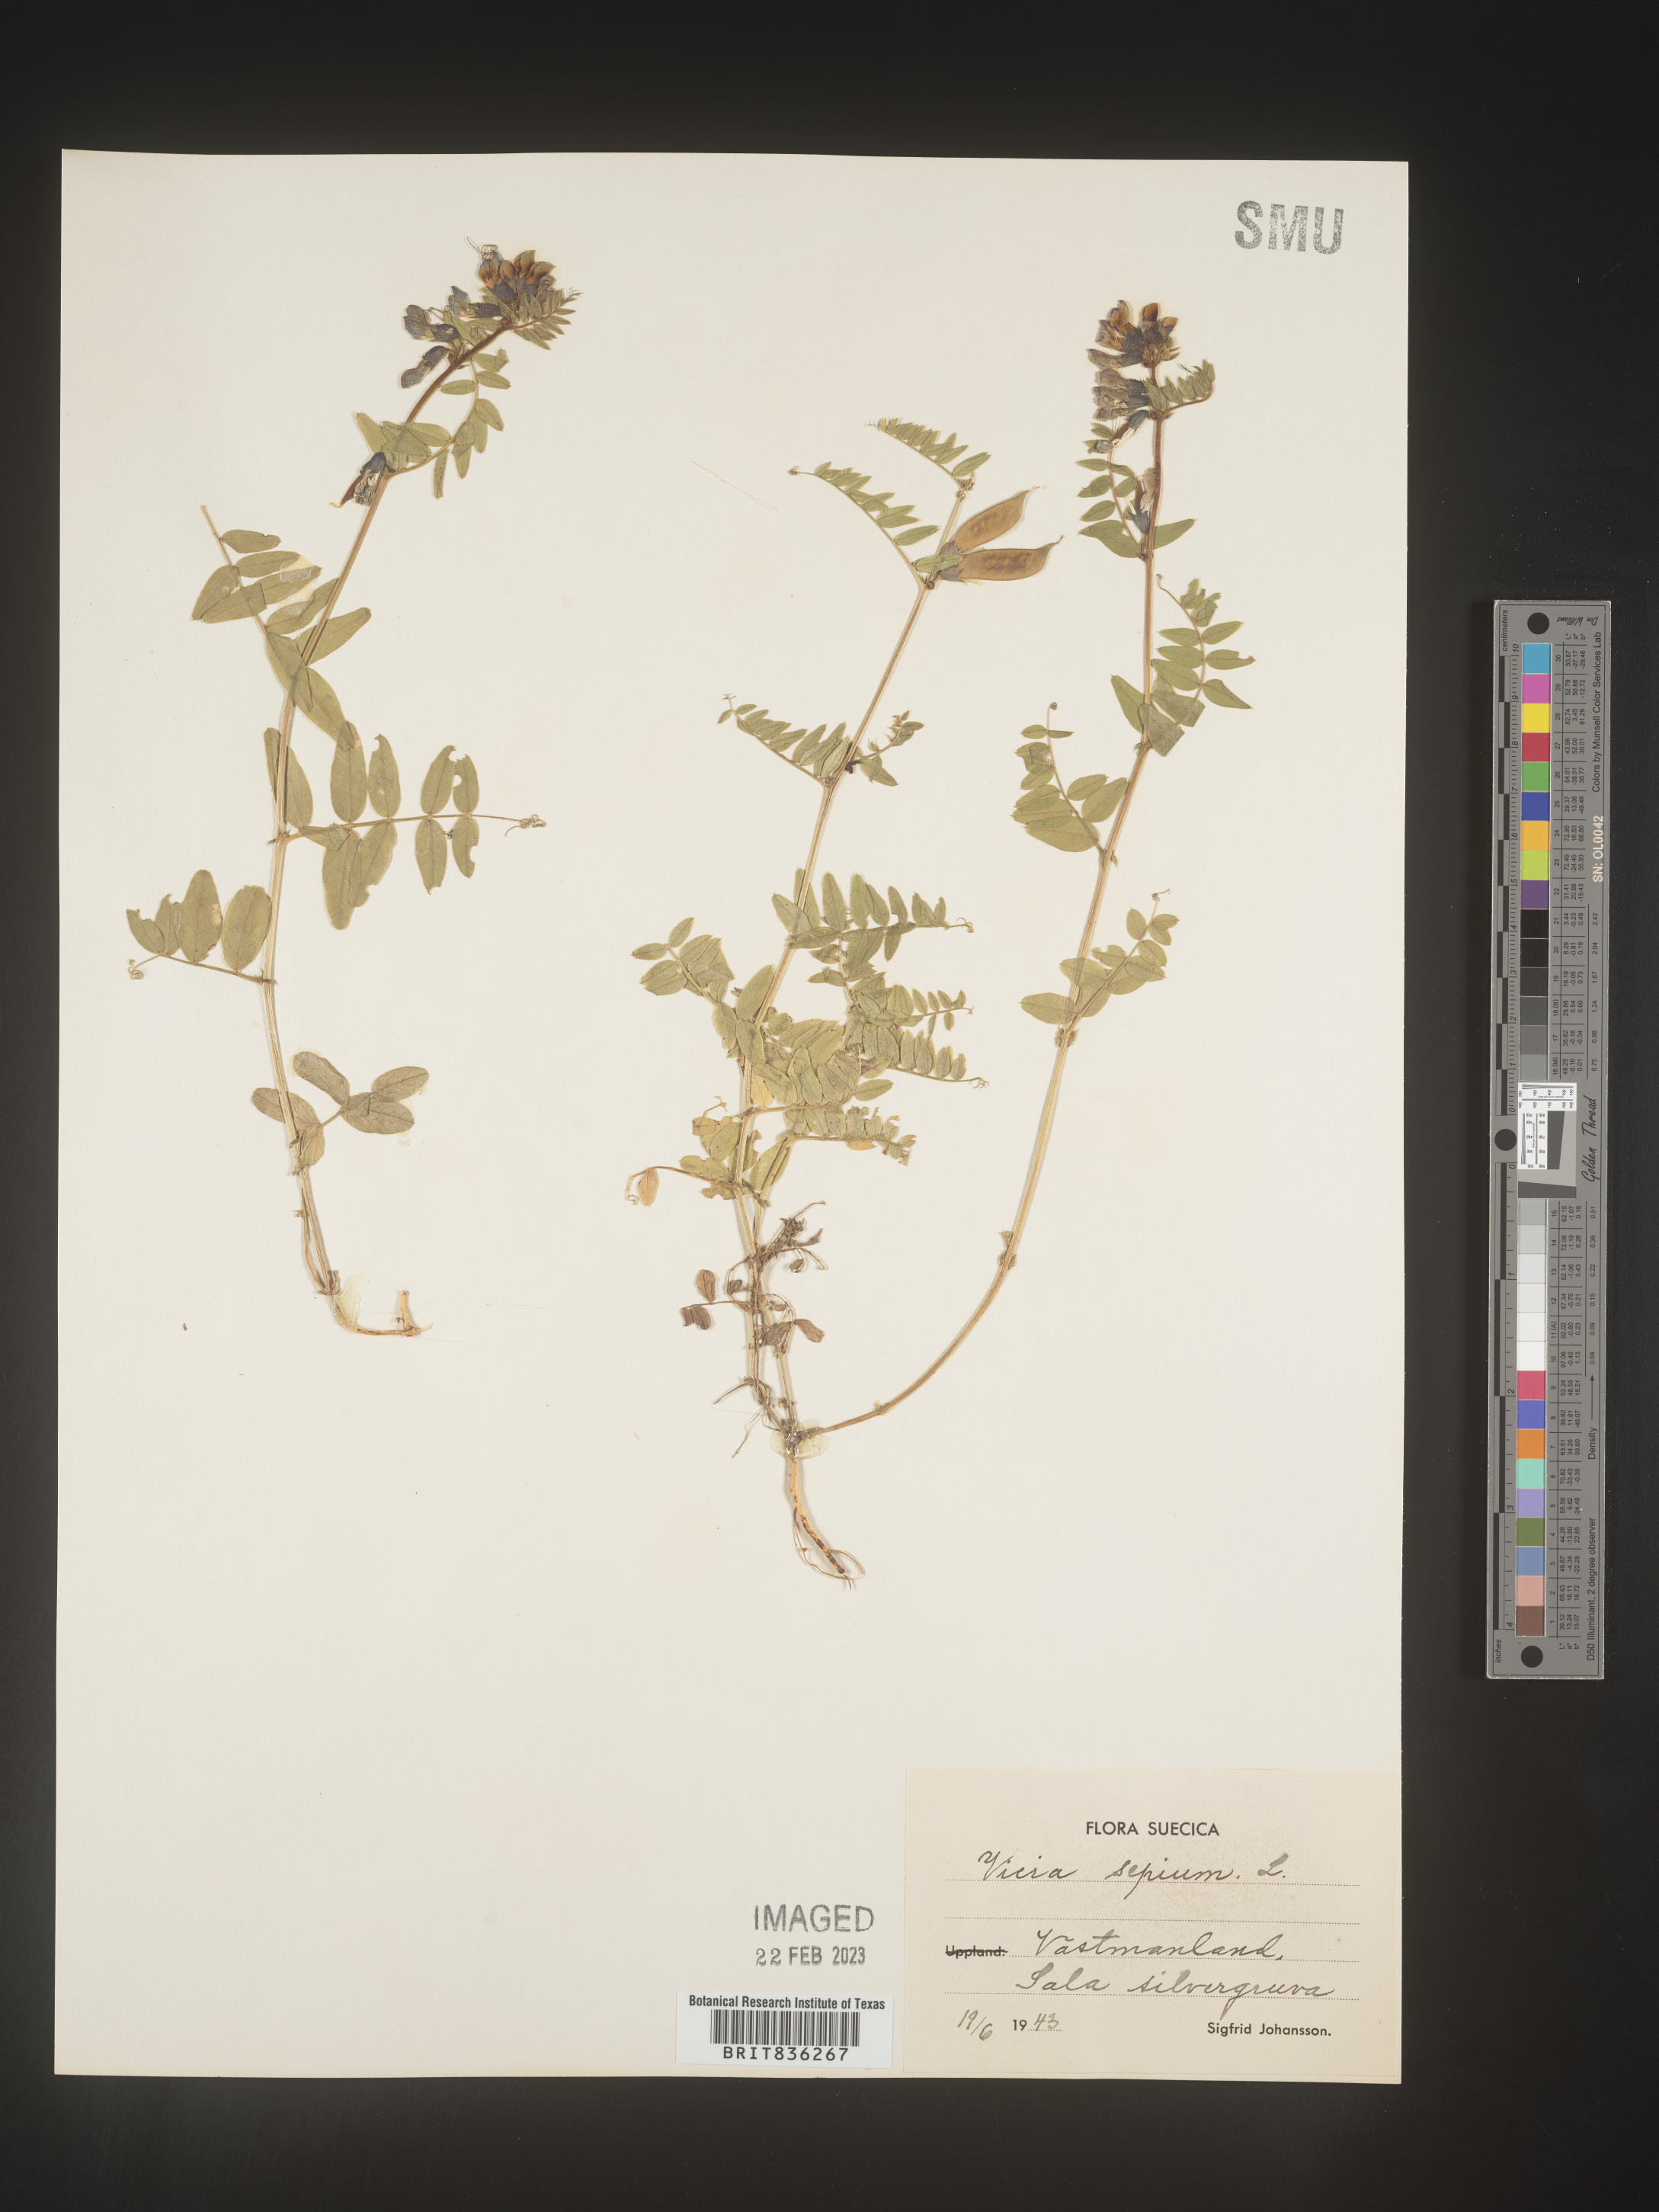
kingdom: Plantae
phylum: Tracheophyta
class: Magnoliopsida
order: Fabales
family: Fabaceae
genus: Vicia
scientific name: Vicia
